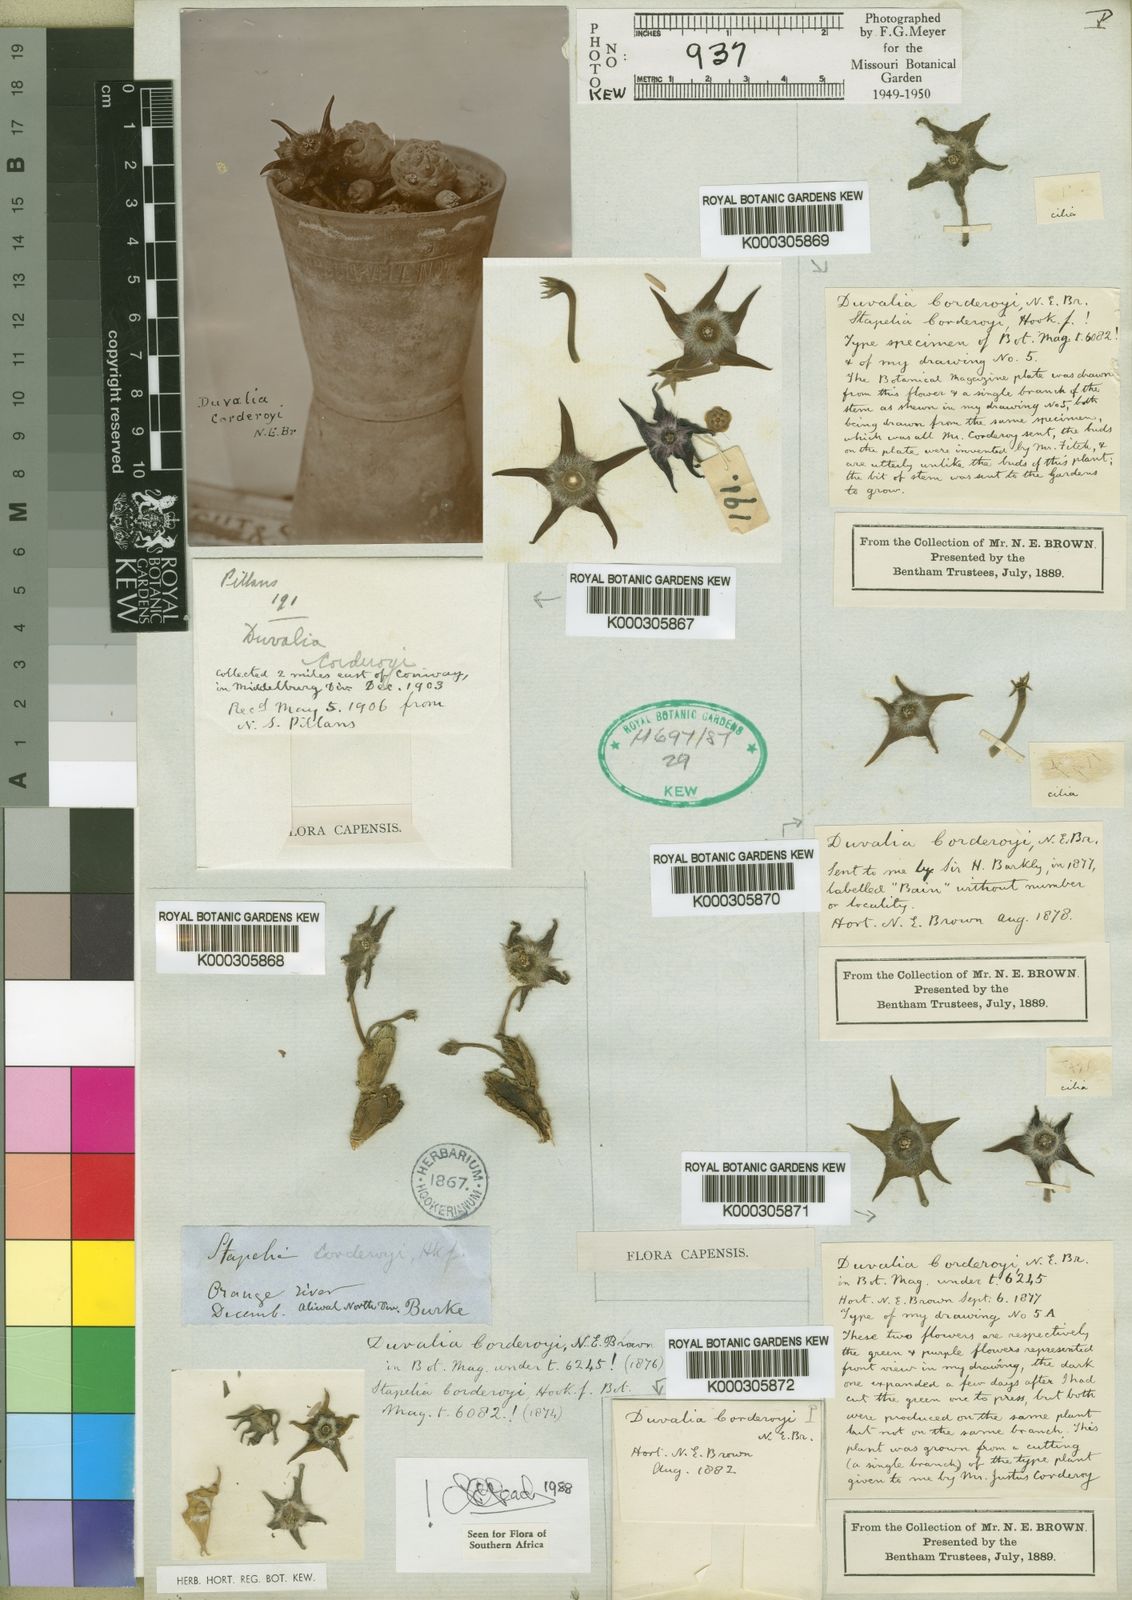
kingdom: Plantae
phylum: Tracheophyta
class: Magnoliopsida
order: Gentianales
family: Apocynaceae
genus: Ceropegia
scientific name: Ceropegia corderoyi
